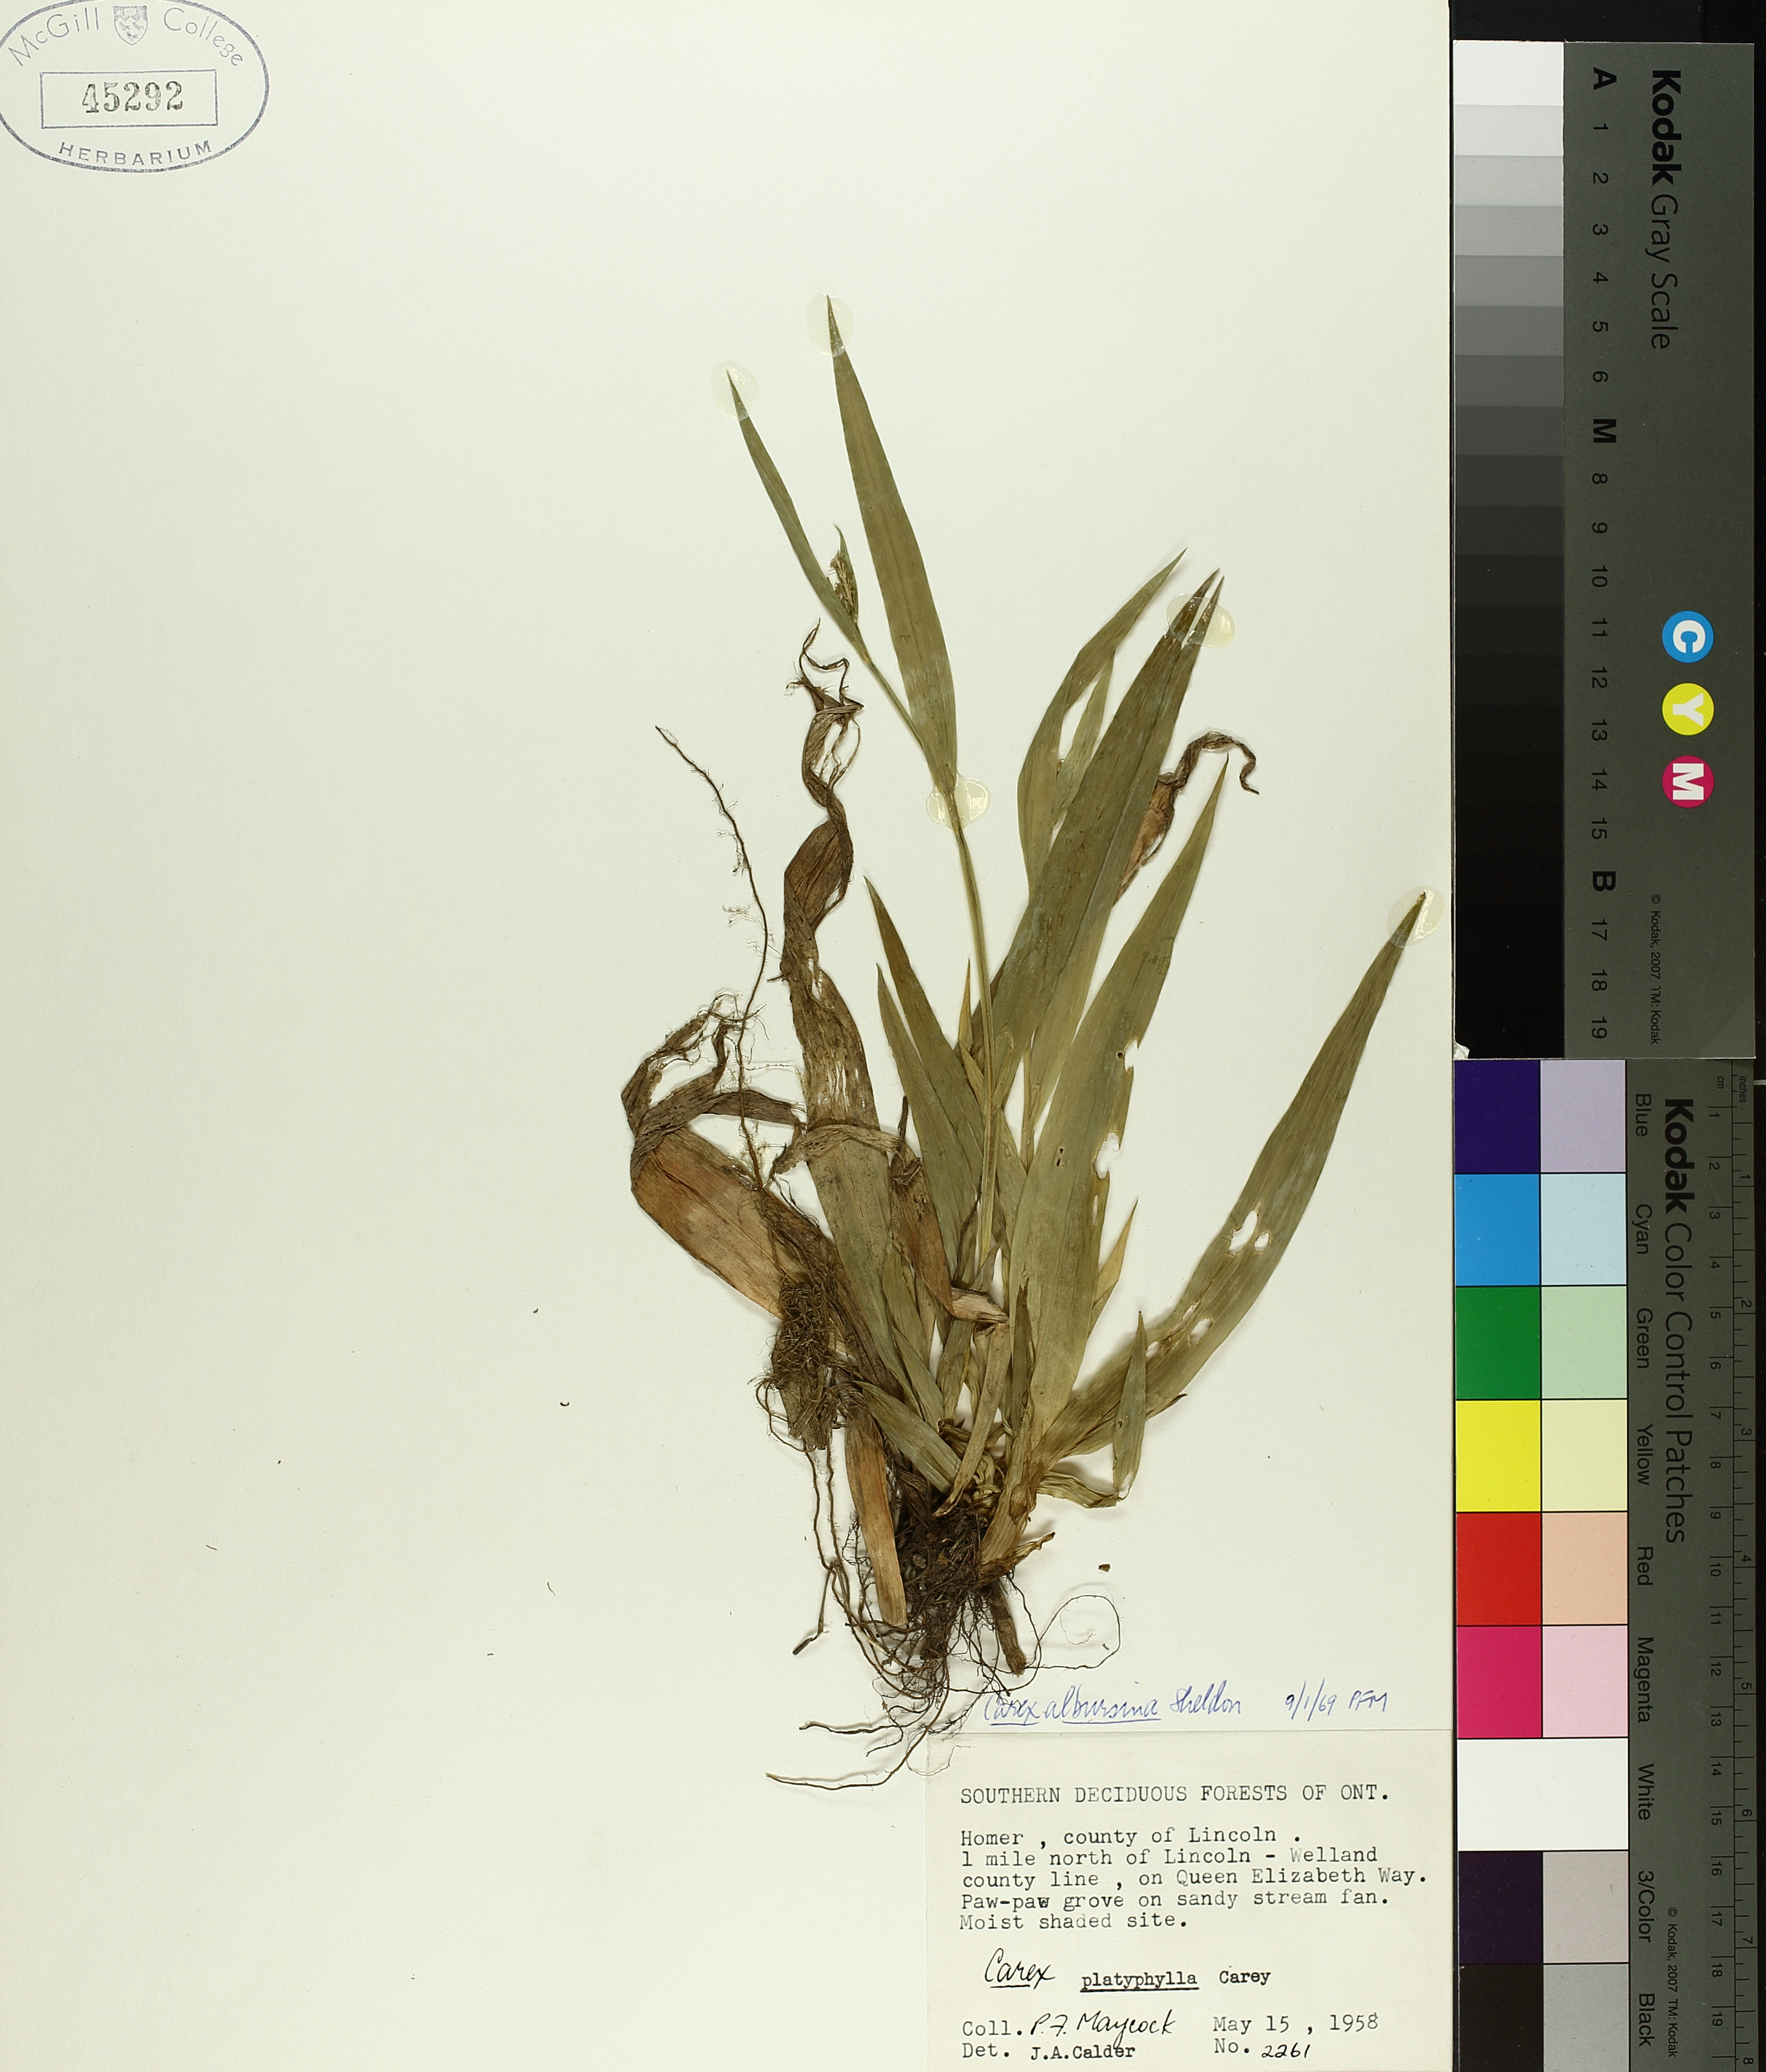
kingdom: Plantae
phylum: Tracheophyta
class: Liliopsida
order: Poales
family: Cyperaceae
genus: Carex
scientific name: Carex albursina
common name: Blunt-scale wood sedge
